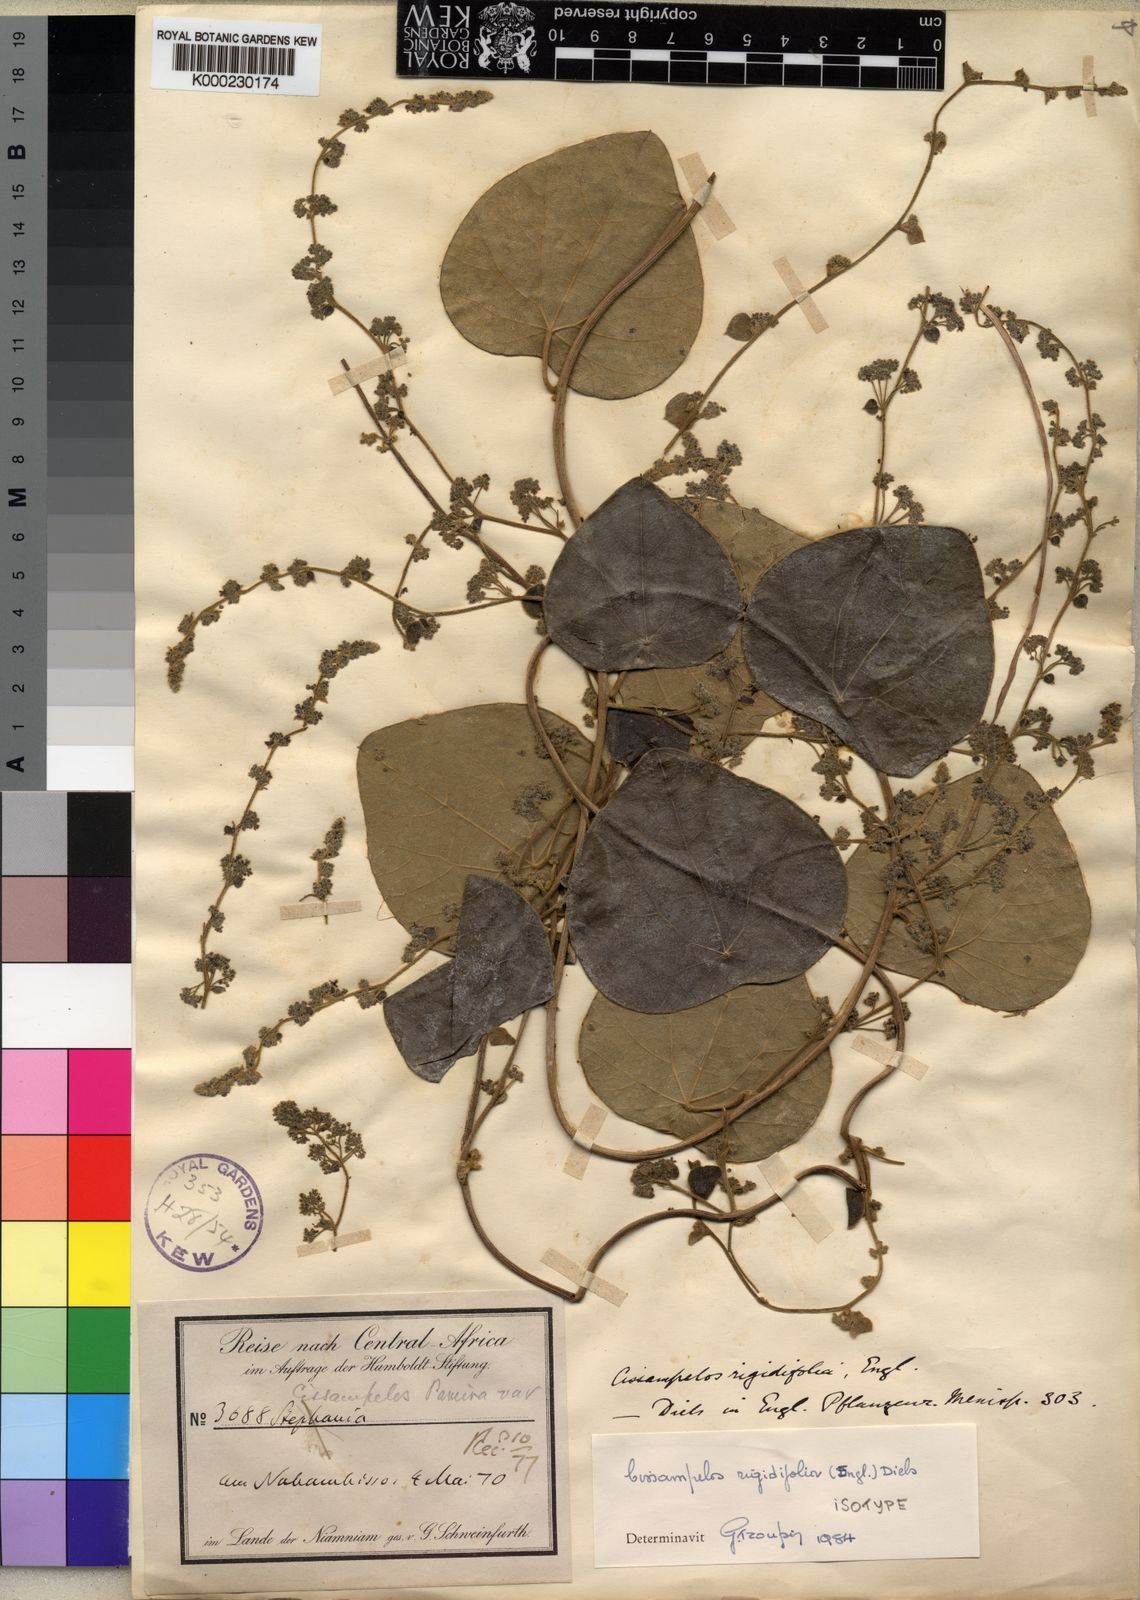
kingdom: Plantae
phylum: Tracheophyta
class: Magnoliopsida
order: Ranunculales
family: Menispermaceae
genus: Cissampelos
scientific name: Cissampelos rigidifolia
